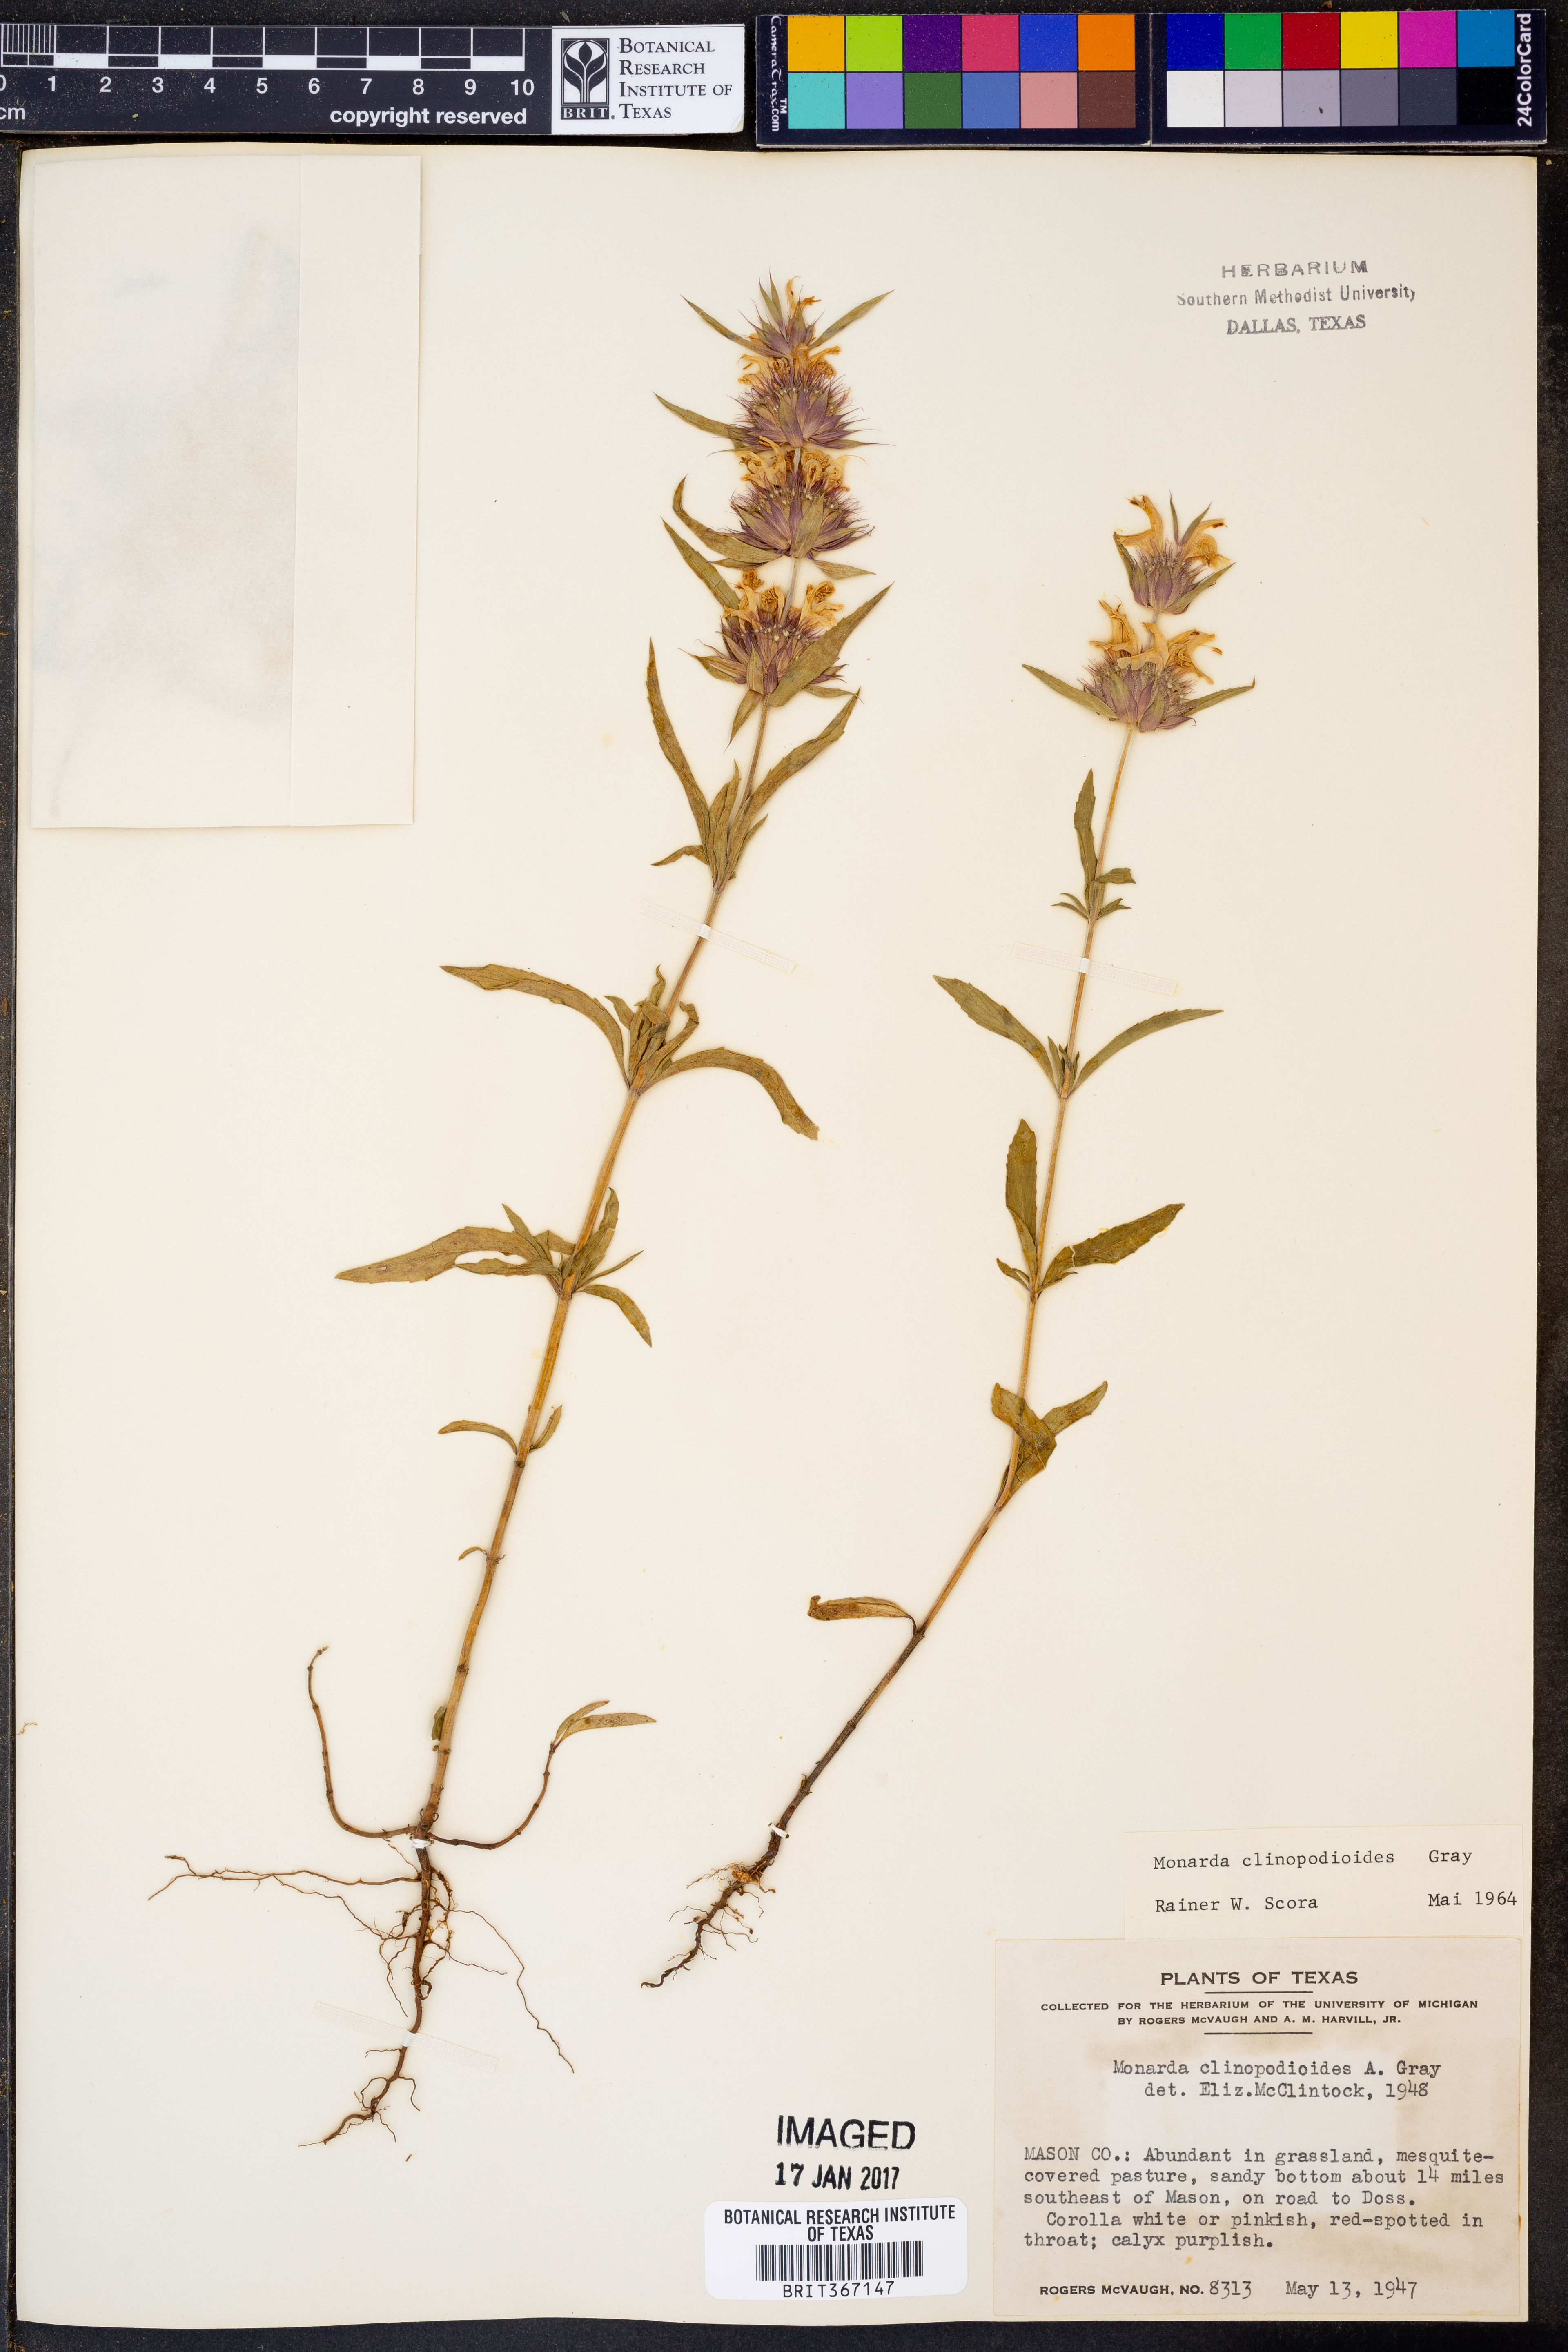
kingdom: Plantae
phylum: Tracheophyta
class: Magnoliopsida
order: Lamiales
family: Lamiaceae
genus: Monarda
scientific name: Monarda clinopodioides
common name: Basil beebalm
